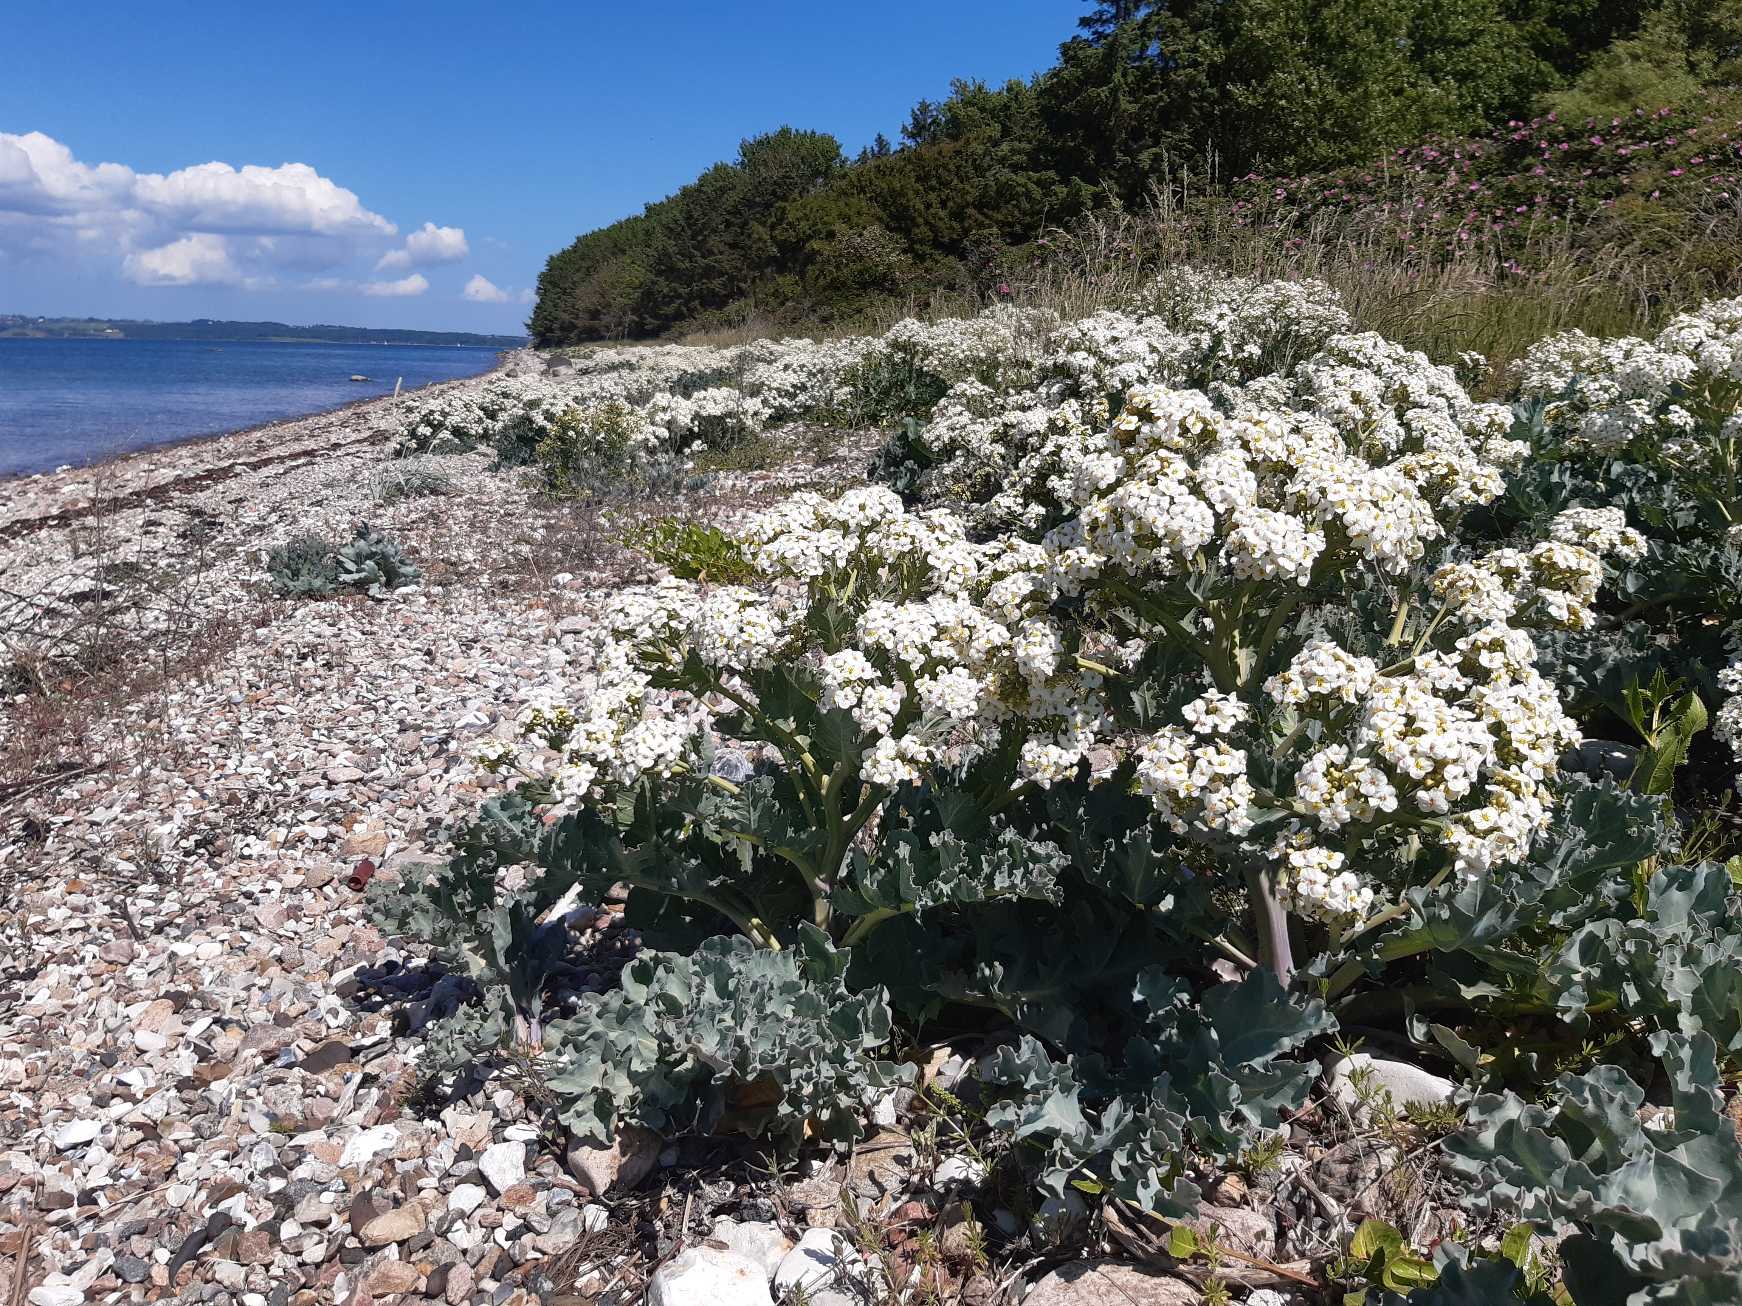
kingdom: Plantae
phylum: Tracheophyta
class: Magnoliopsida
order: Brassicales
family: Brassicaceae
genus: Crambe
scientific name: Crambe maritima
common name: Strandkål
